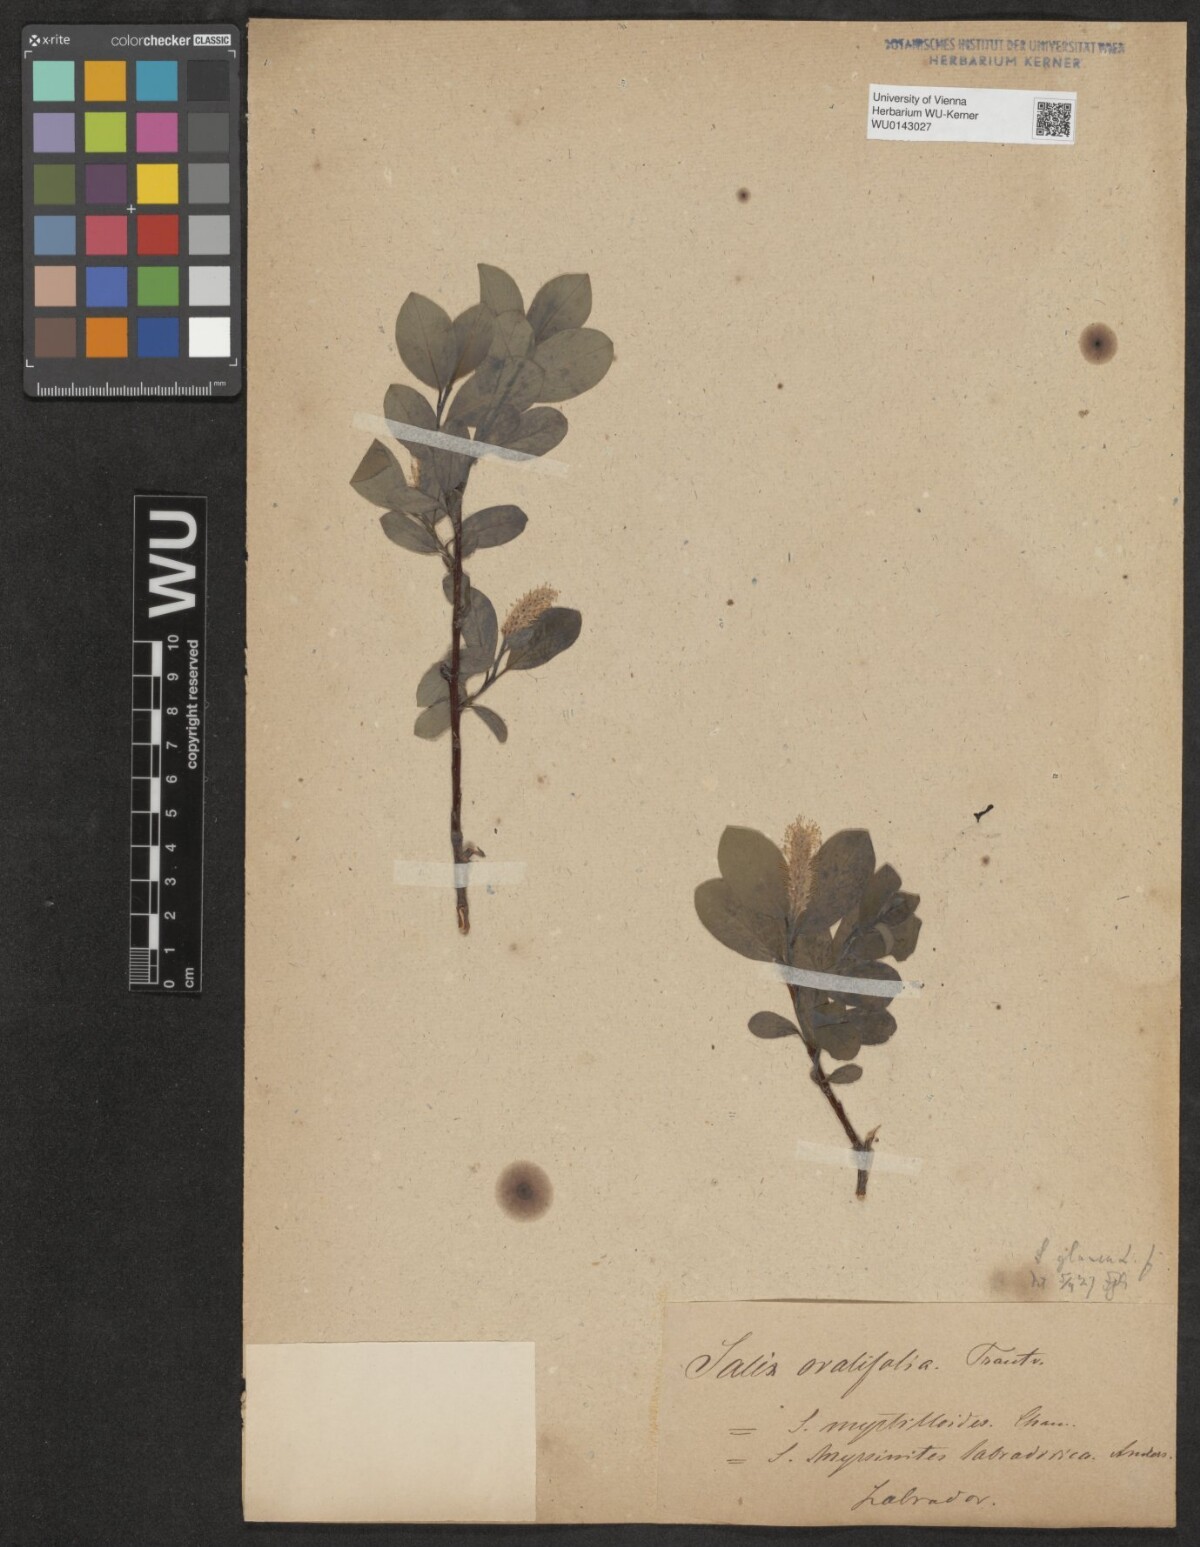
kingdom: Plantae
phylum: Tracheophyta
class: Magnoliopsida
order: Malpighiales
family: Salicaceae
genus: Salix
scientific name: Salix ovalifolia
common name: Arctic seashore willow
